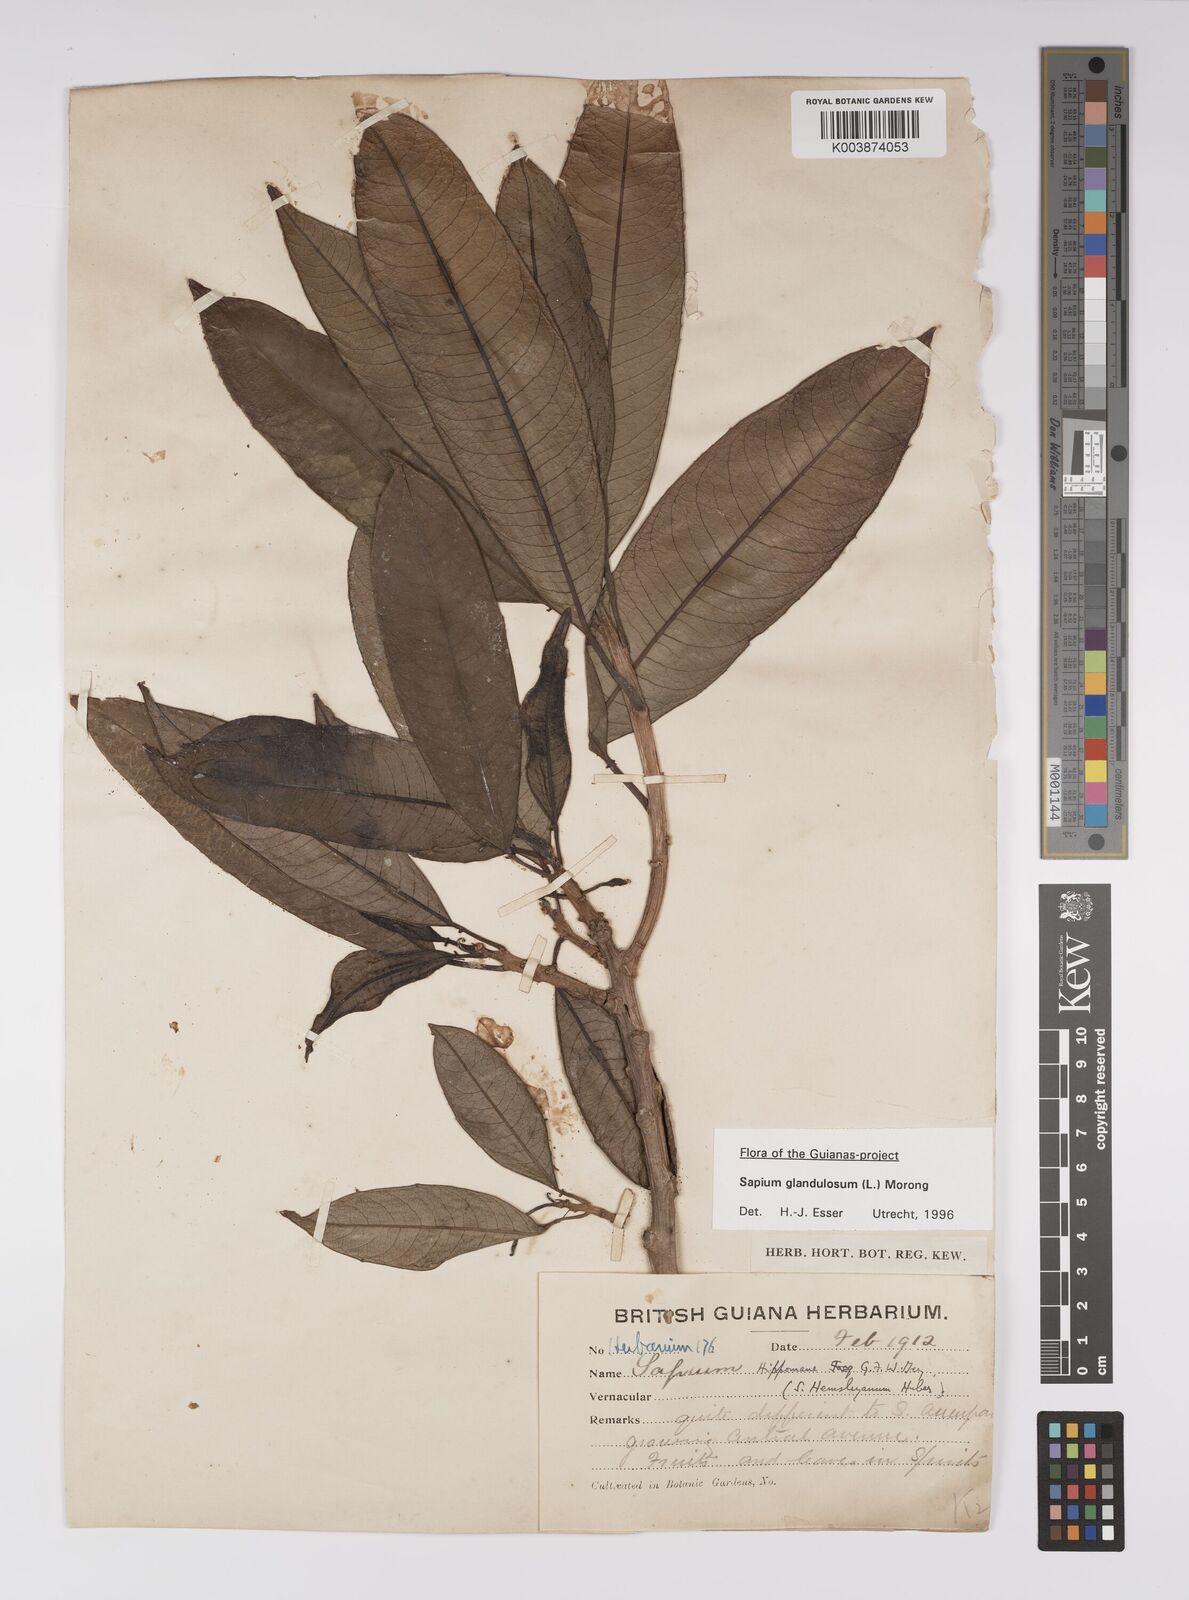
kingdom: Plantae
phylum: Tracheophyta
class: Magnoliopsida
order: Malpighiales
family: Euphorbiaceae
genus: Sapium
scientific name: Sapium glandulosum
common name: Milktree
